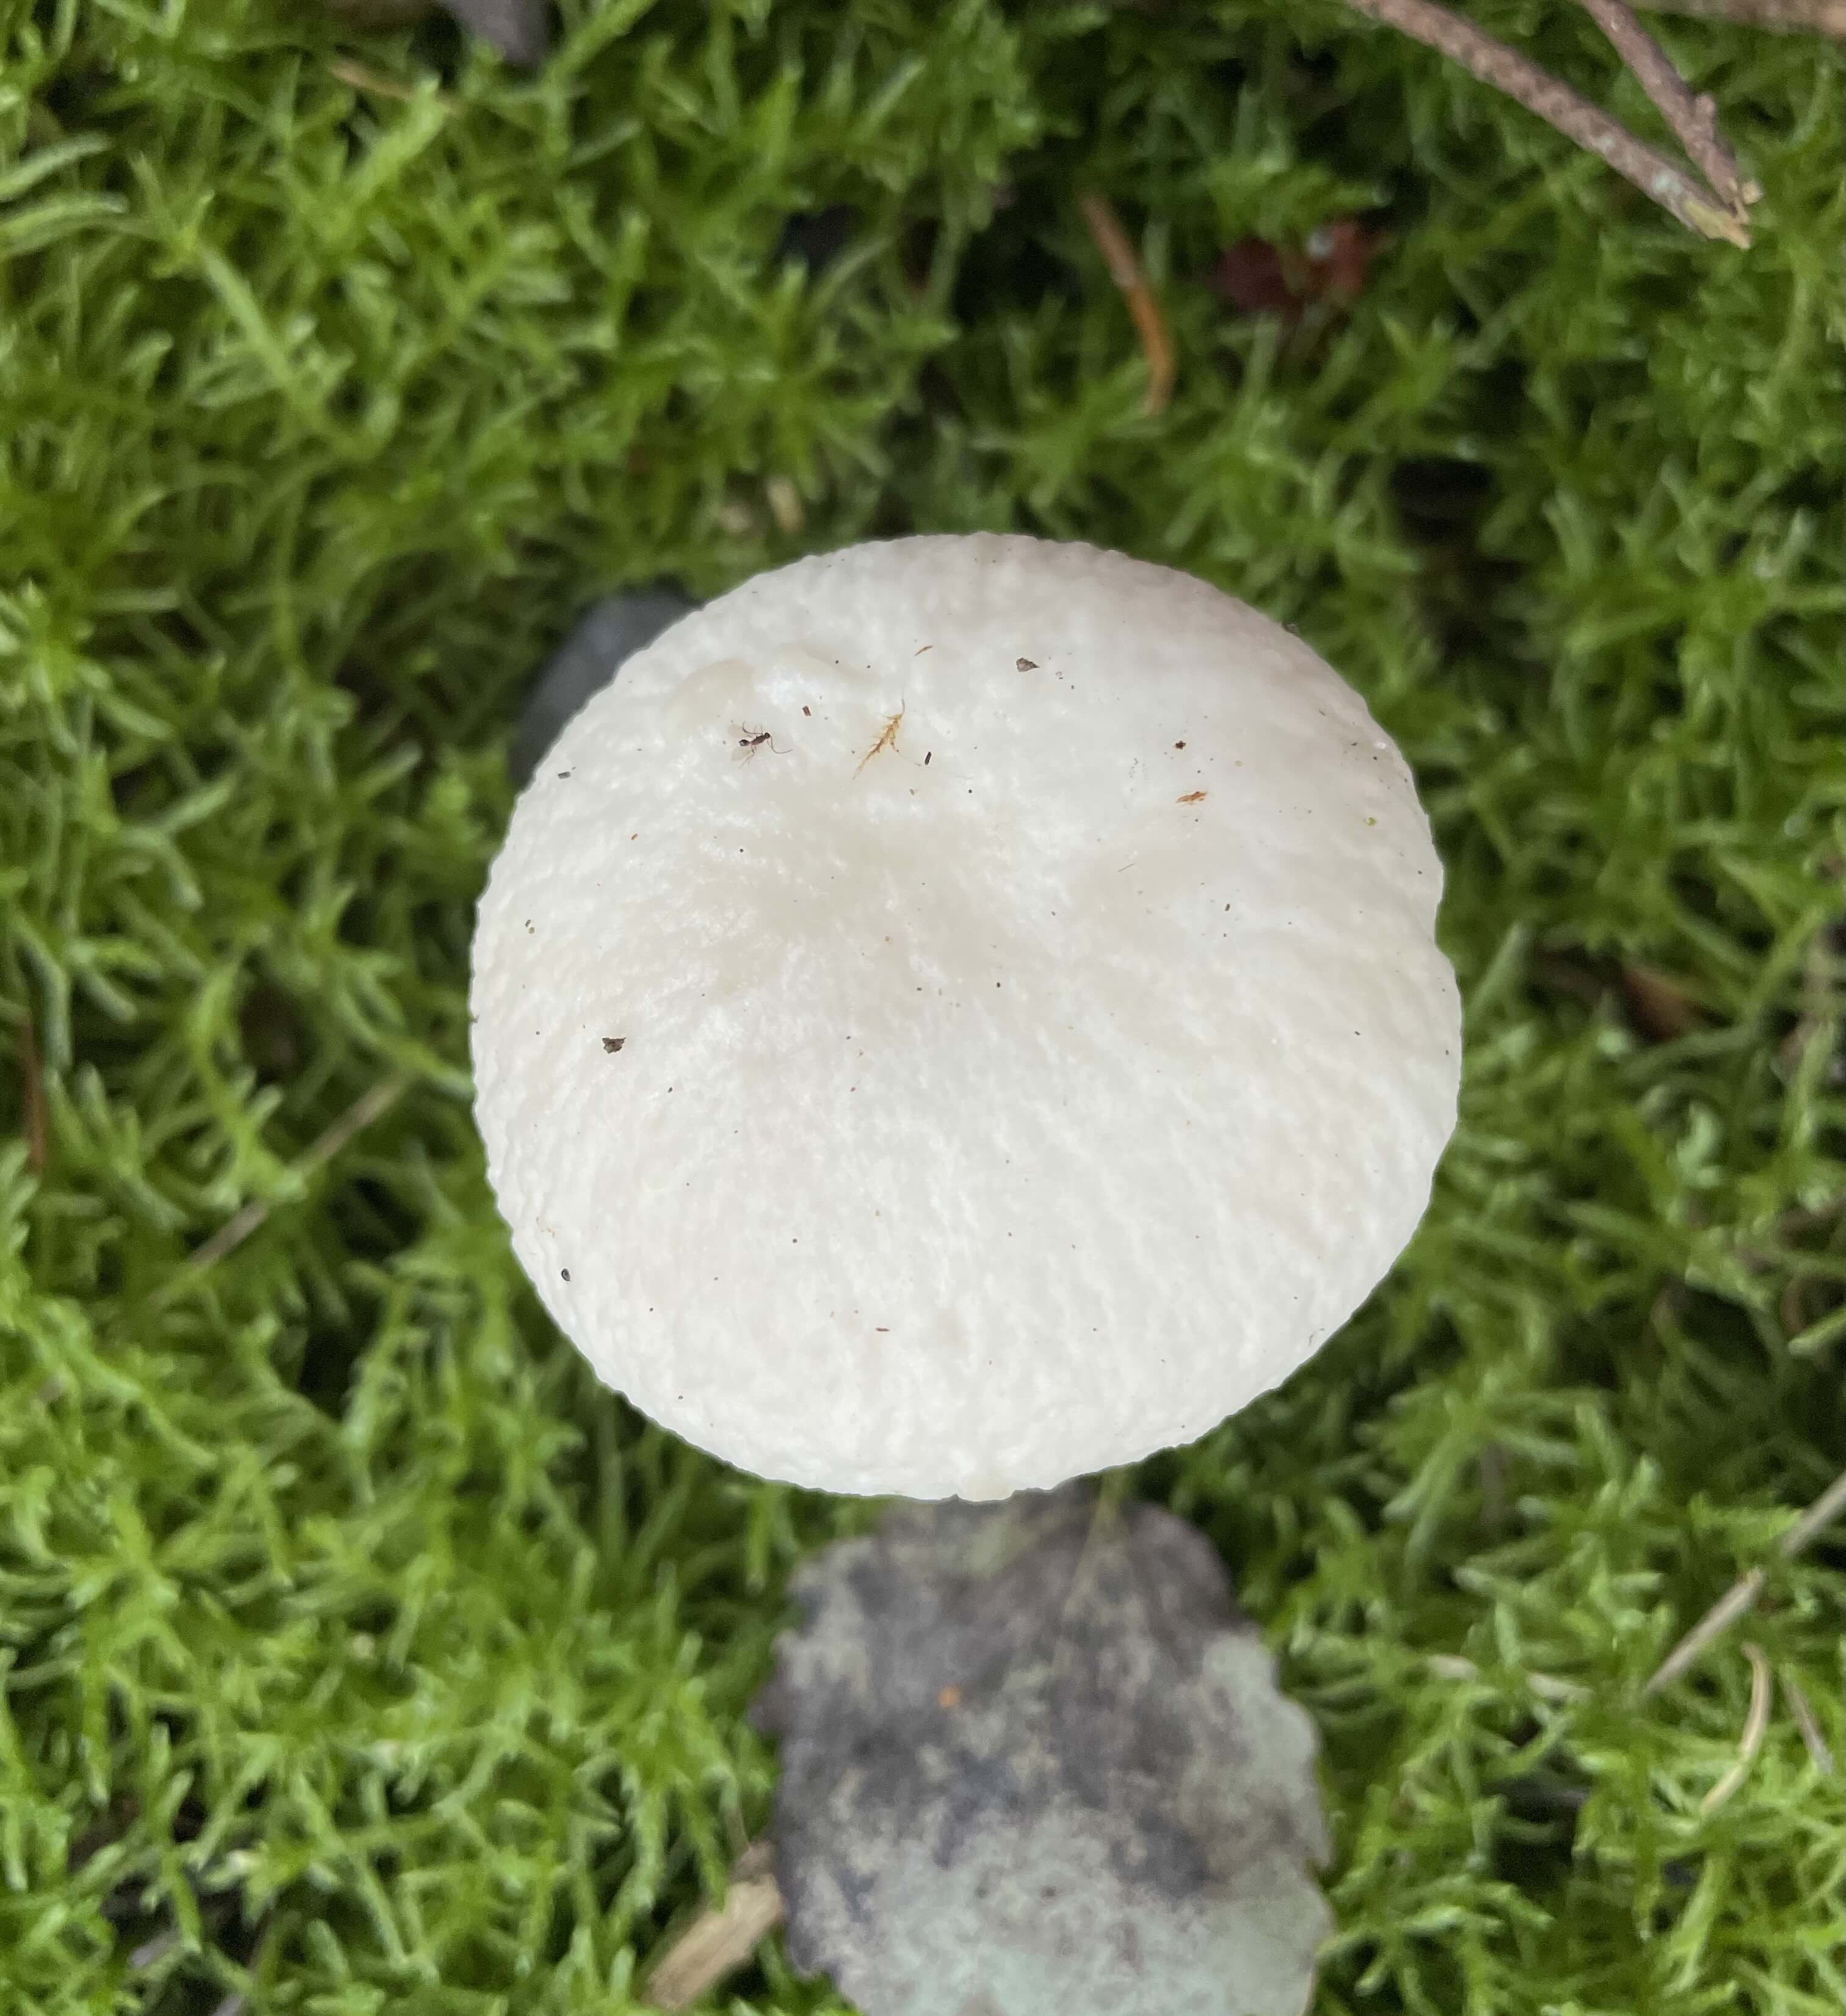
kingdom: Fungi
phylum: Basidiomycota
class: Agaricomycetes
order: Boletales
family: Boletaceae
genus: Boletus
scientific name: Boletus edulis
